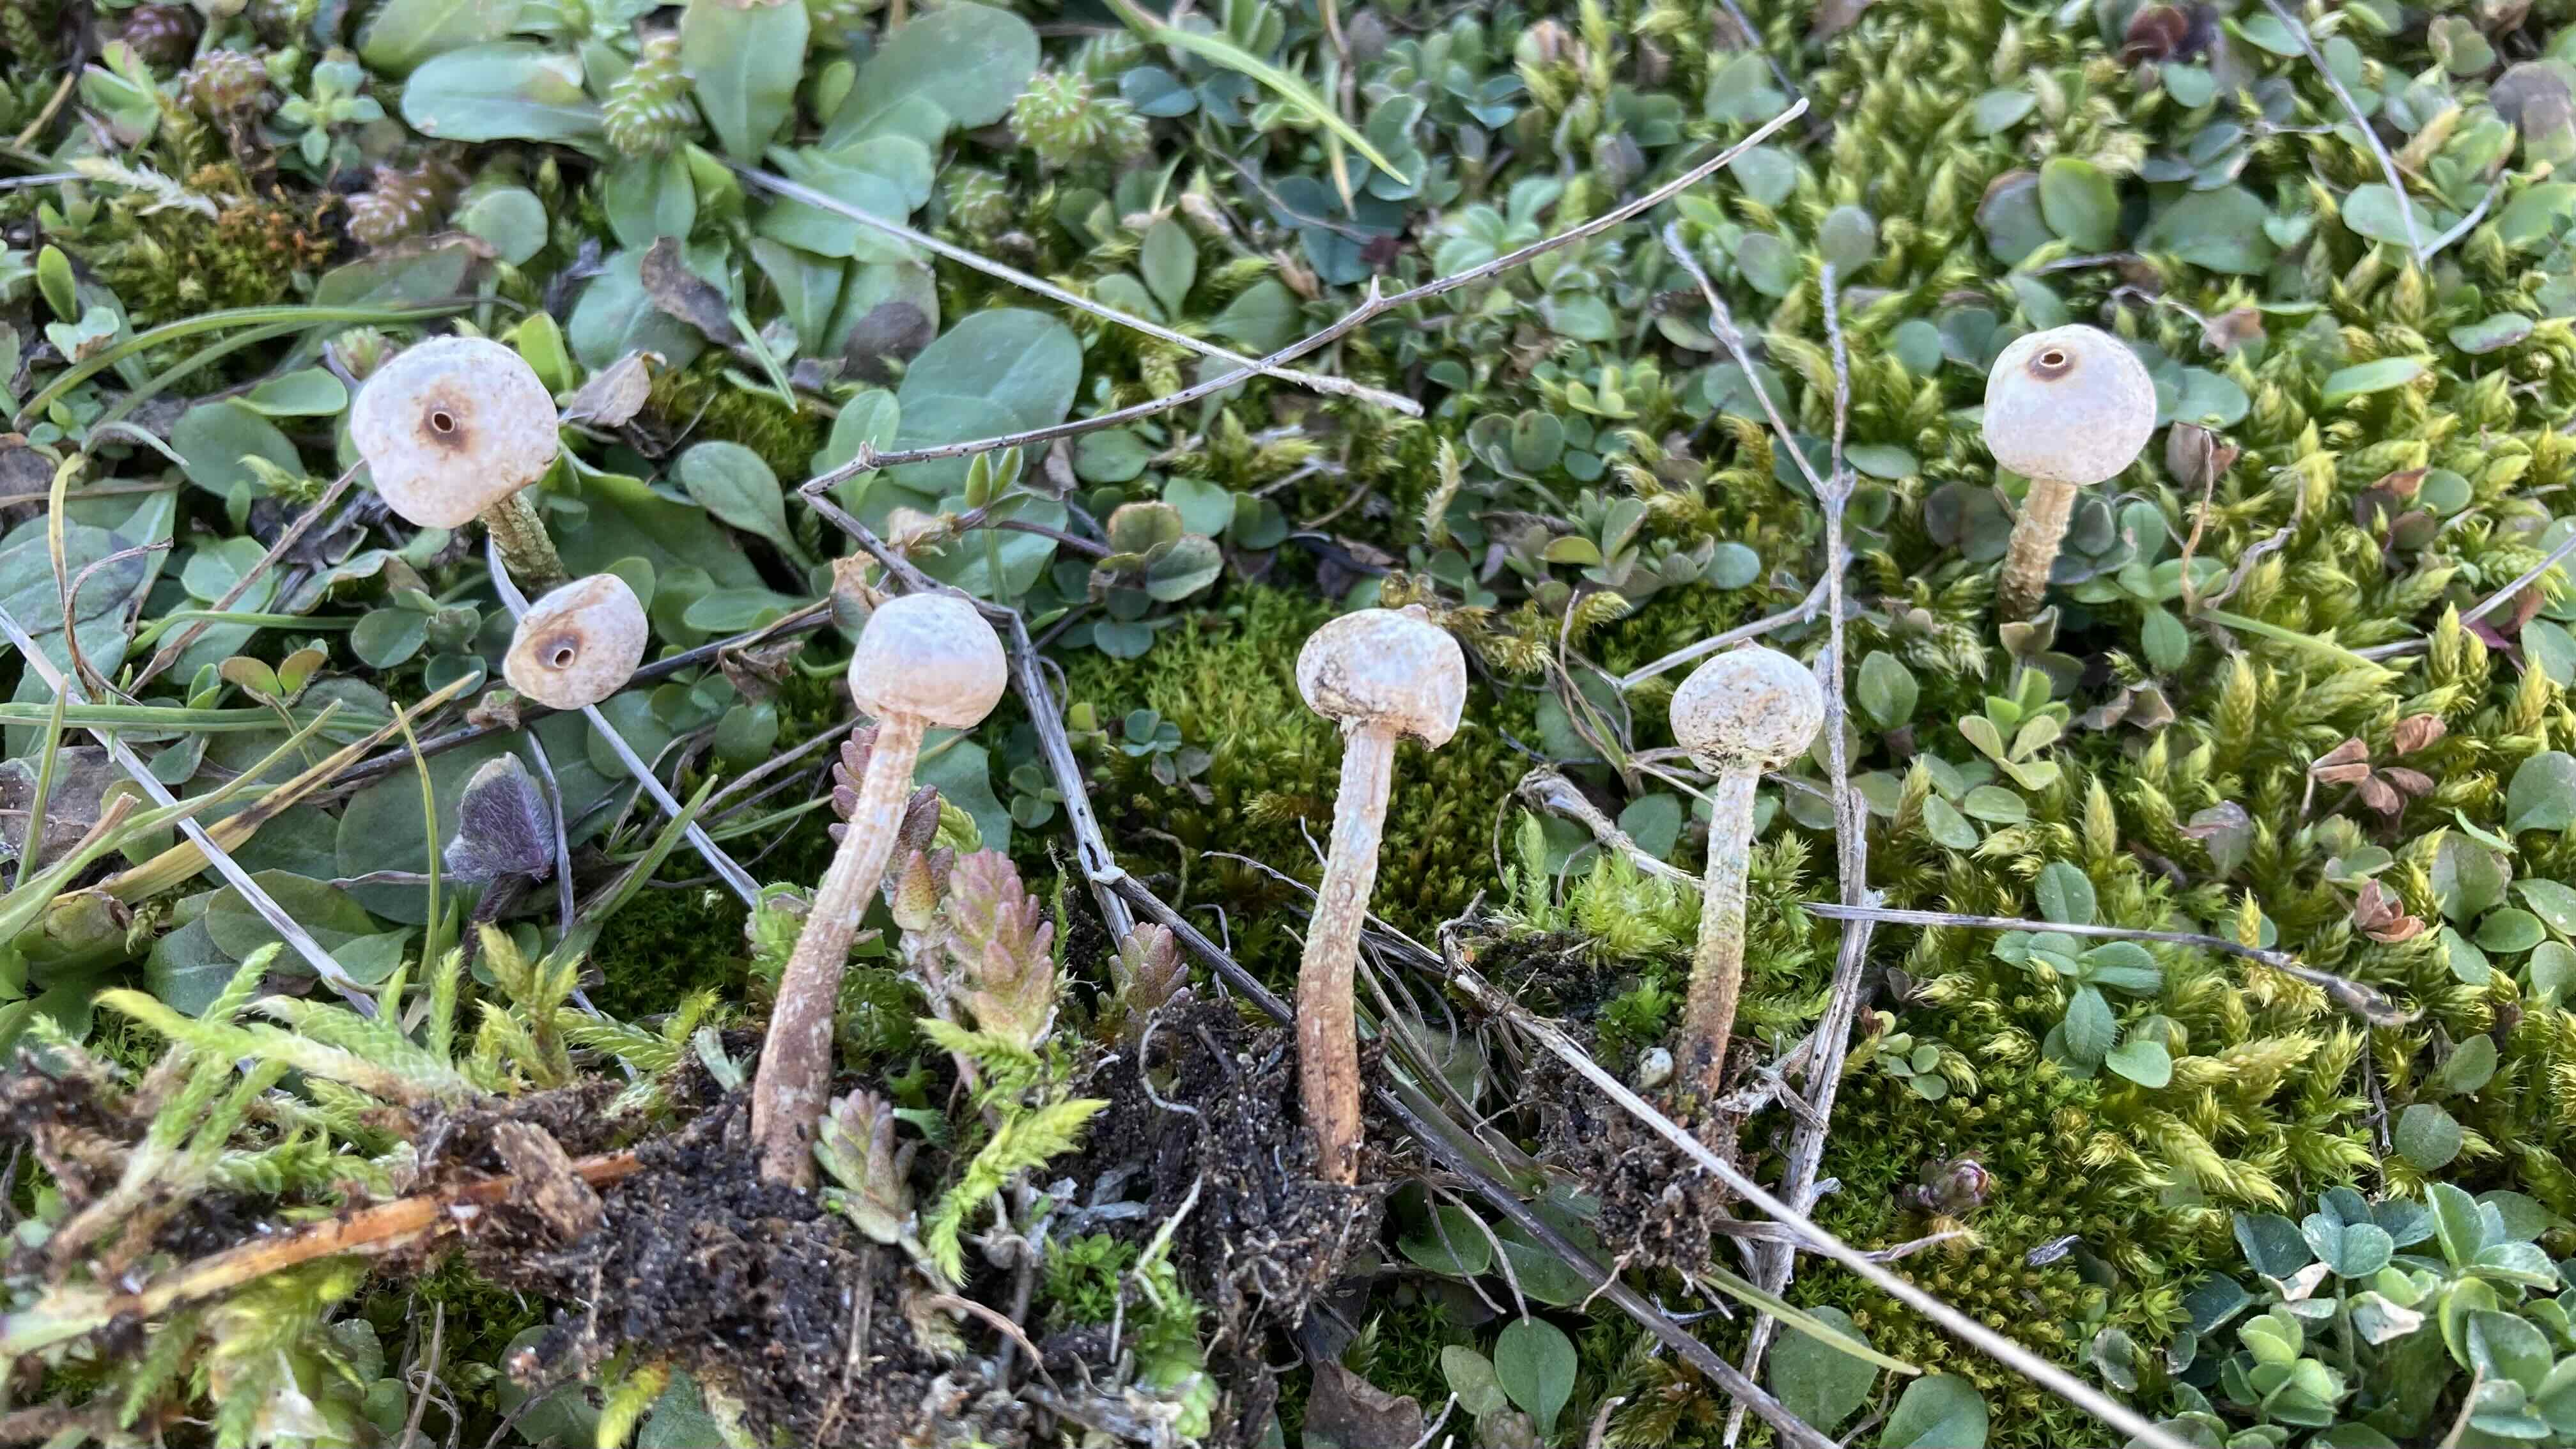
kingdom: Fungi
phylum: Basidiomycota
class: Agaricomycetes
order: Agaricales
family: Agaricaceae
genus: Tulostoma
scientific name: Tulostoma brumale
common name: vinter-stilkbovist
